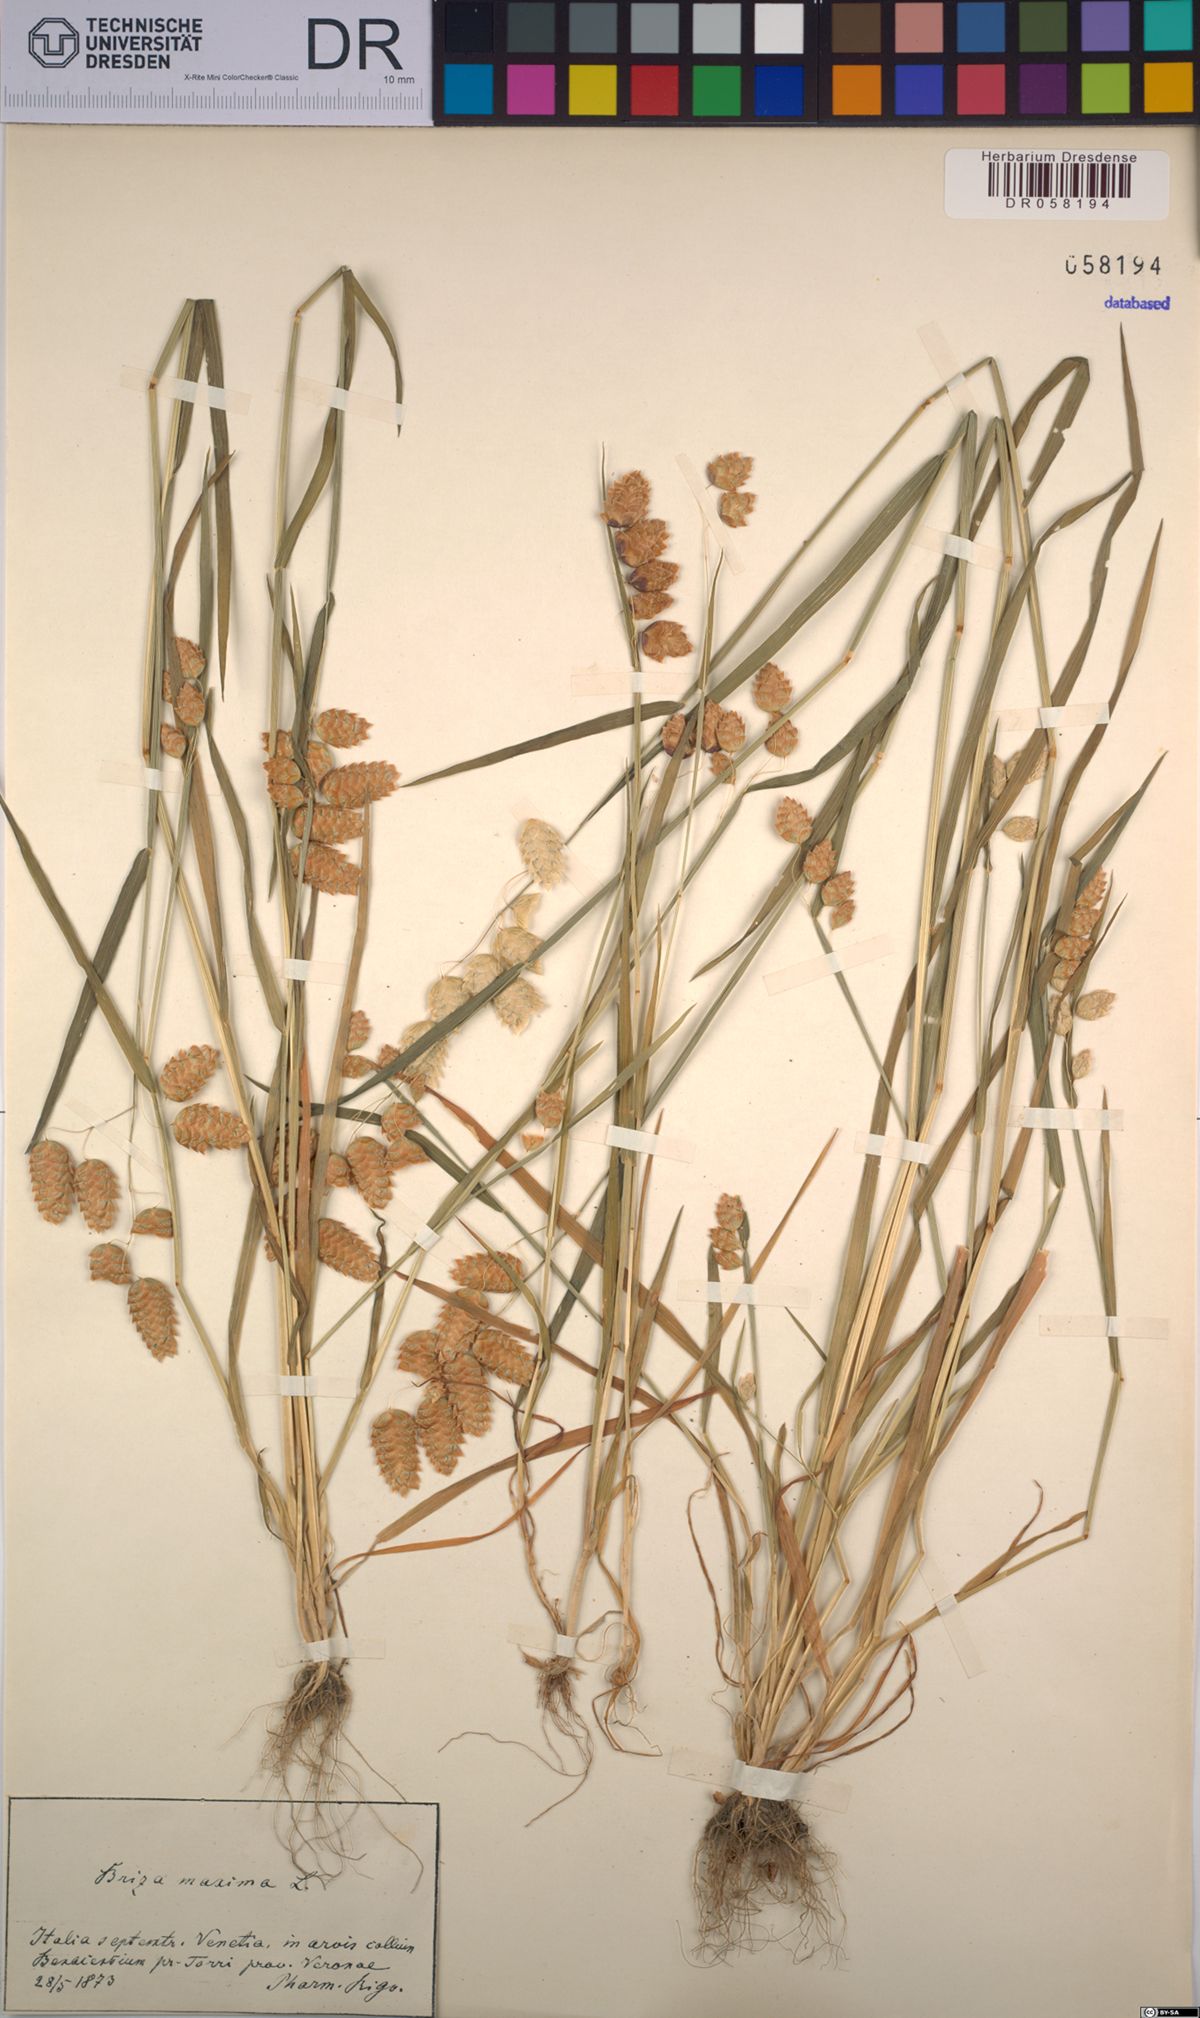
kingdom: Plantae
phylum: Tracheophyta
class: Liliopsida
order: Poales
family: Poaceae
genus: Briza
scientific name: Briza maxima
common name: Big quakinggrass
